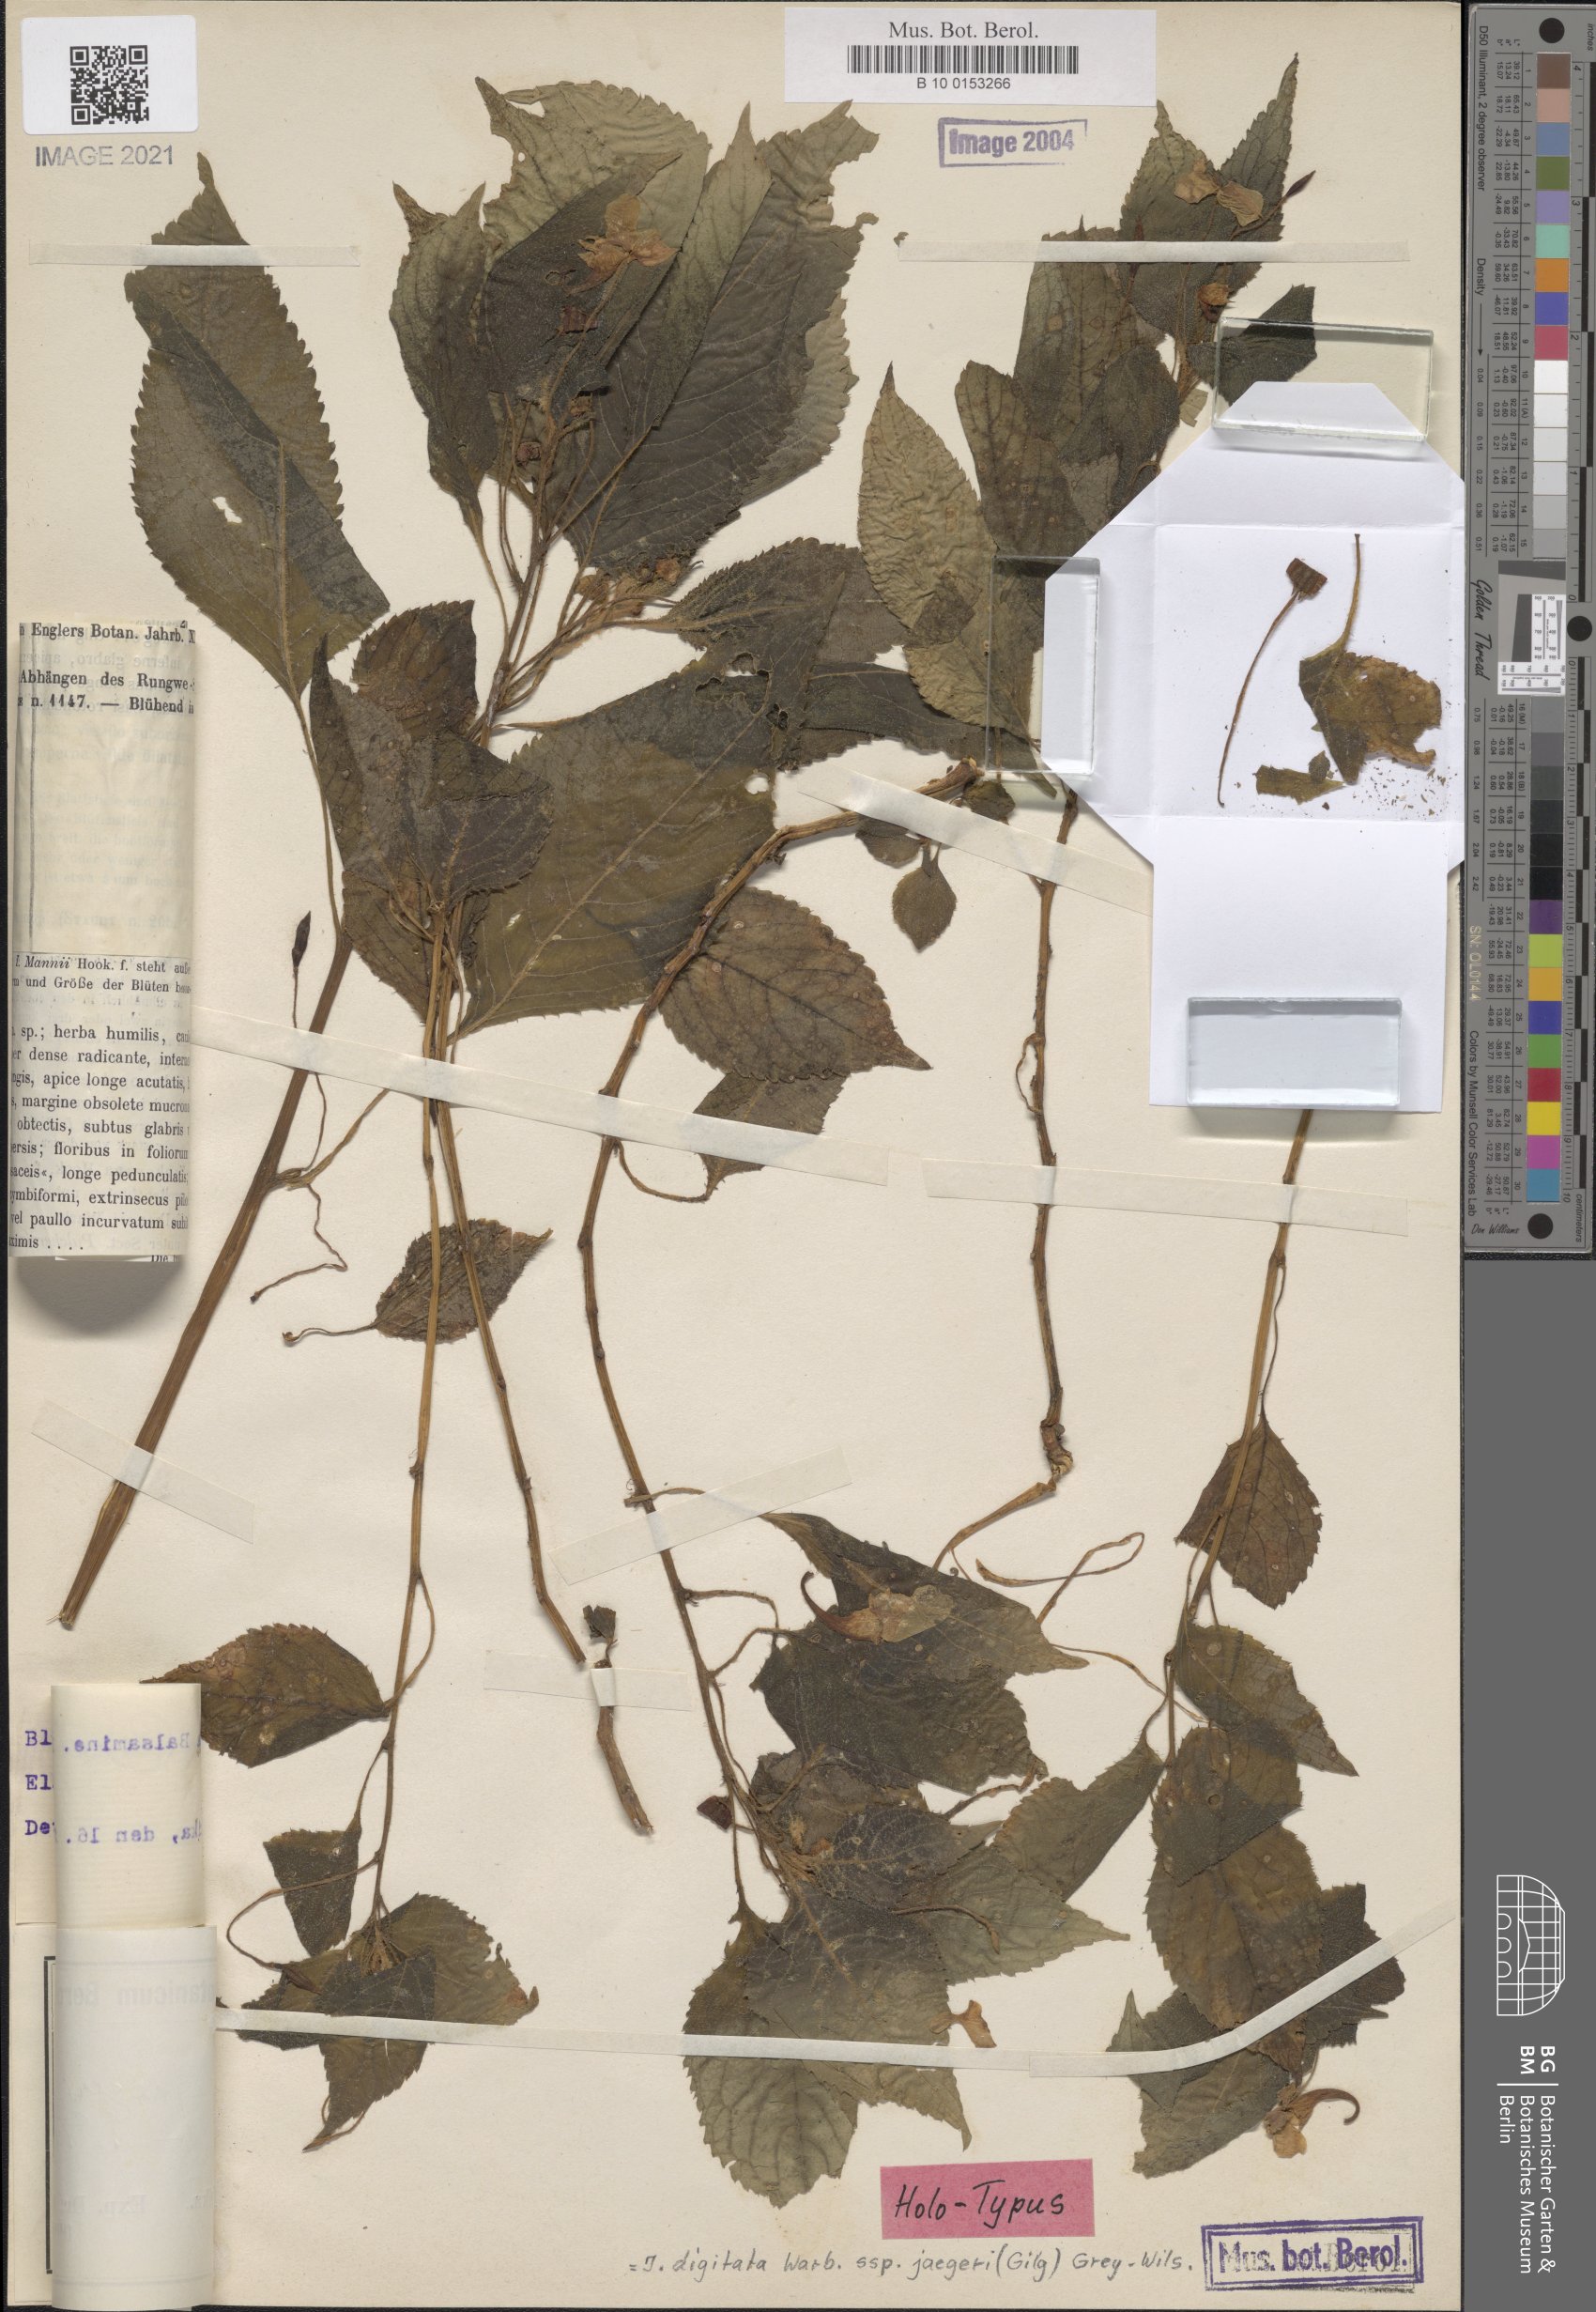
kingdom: Plantae
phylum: Tracheophyta
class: Magnoliopsida
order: Ericales
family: Balsaminaceae
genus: Impatiens
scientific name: Impatiens digitata
